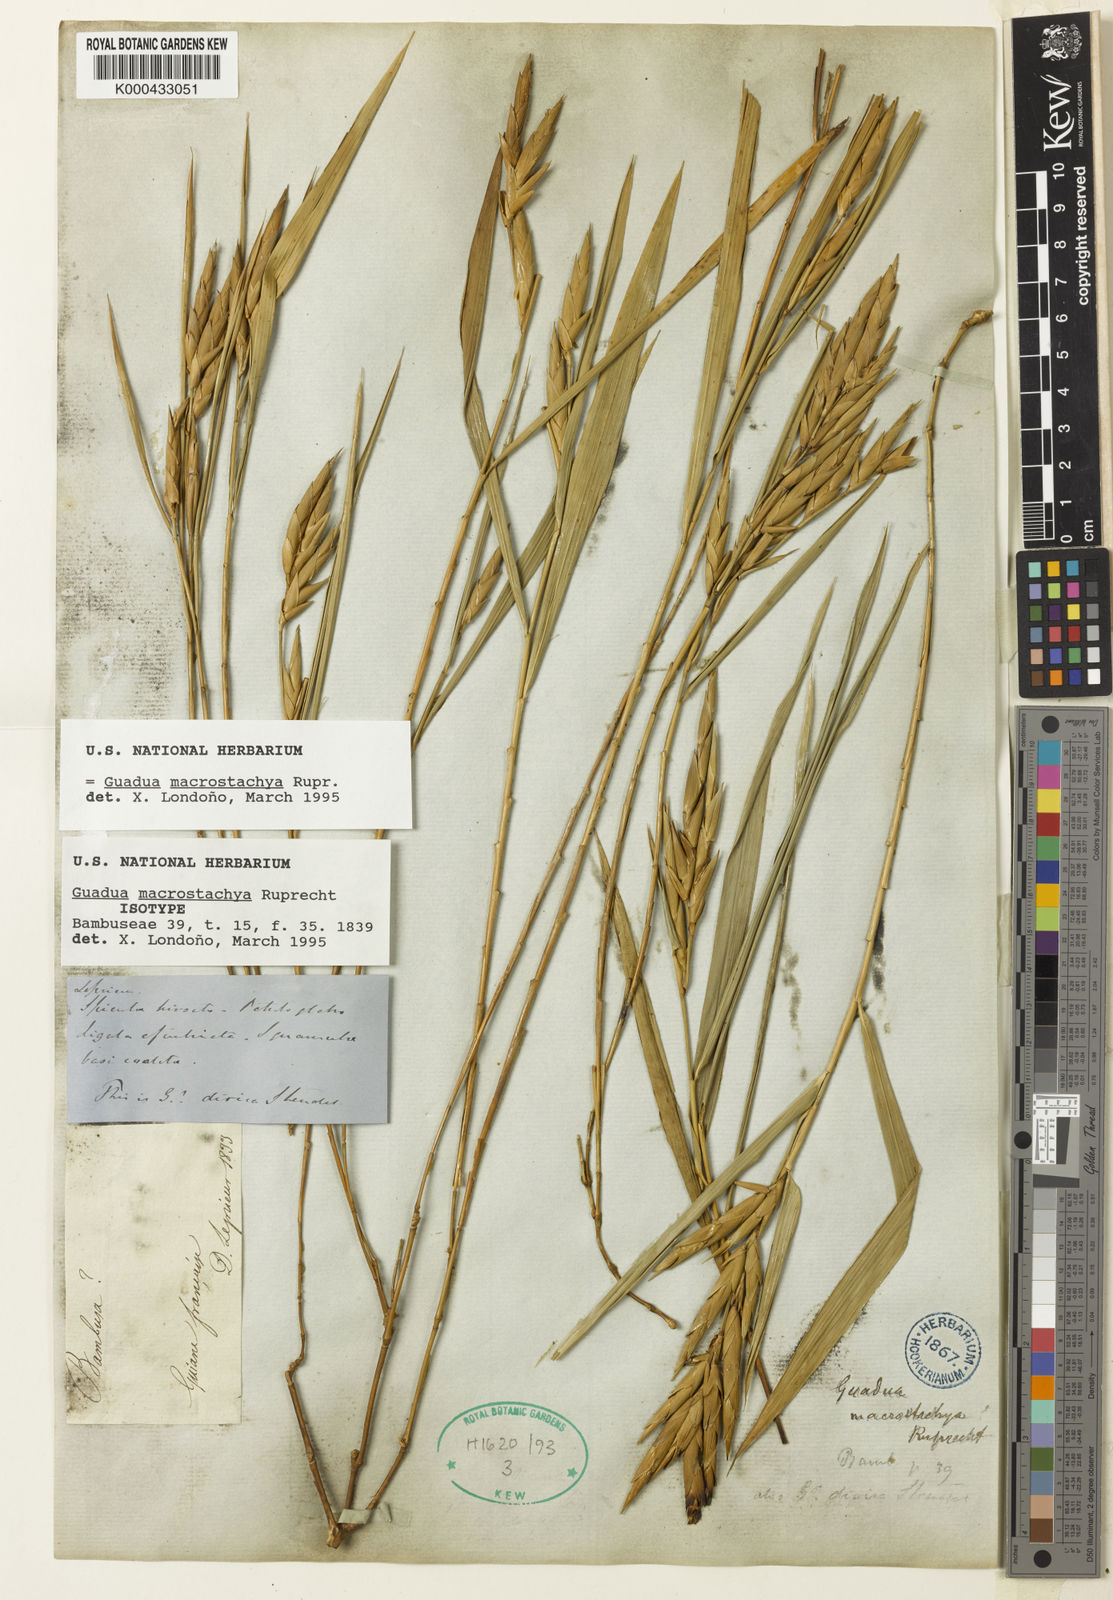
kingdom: Plantae
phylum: Tracheophyta
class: Liliopsida
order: Poales
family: Poaceae
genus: Guadua
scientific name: Guadua macrostachya
